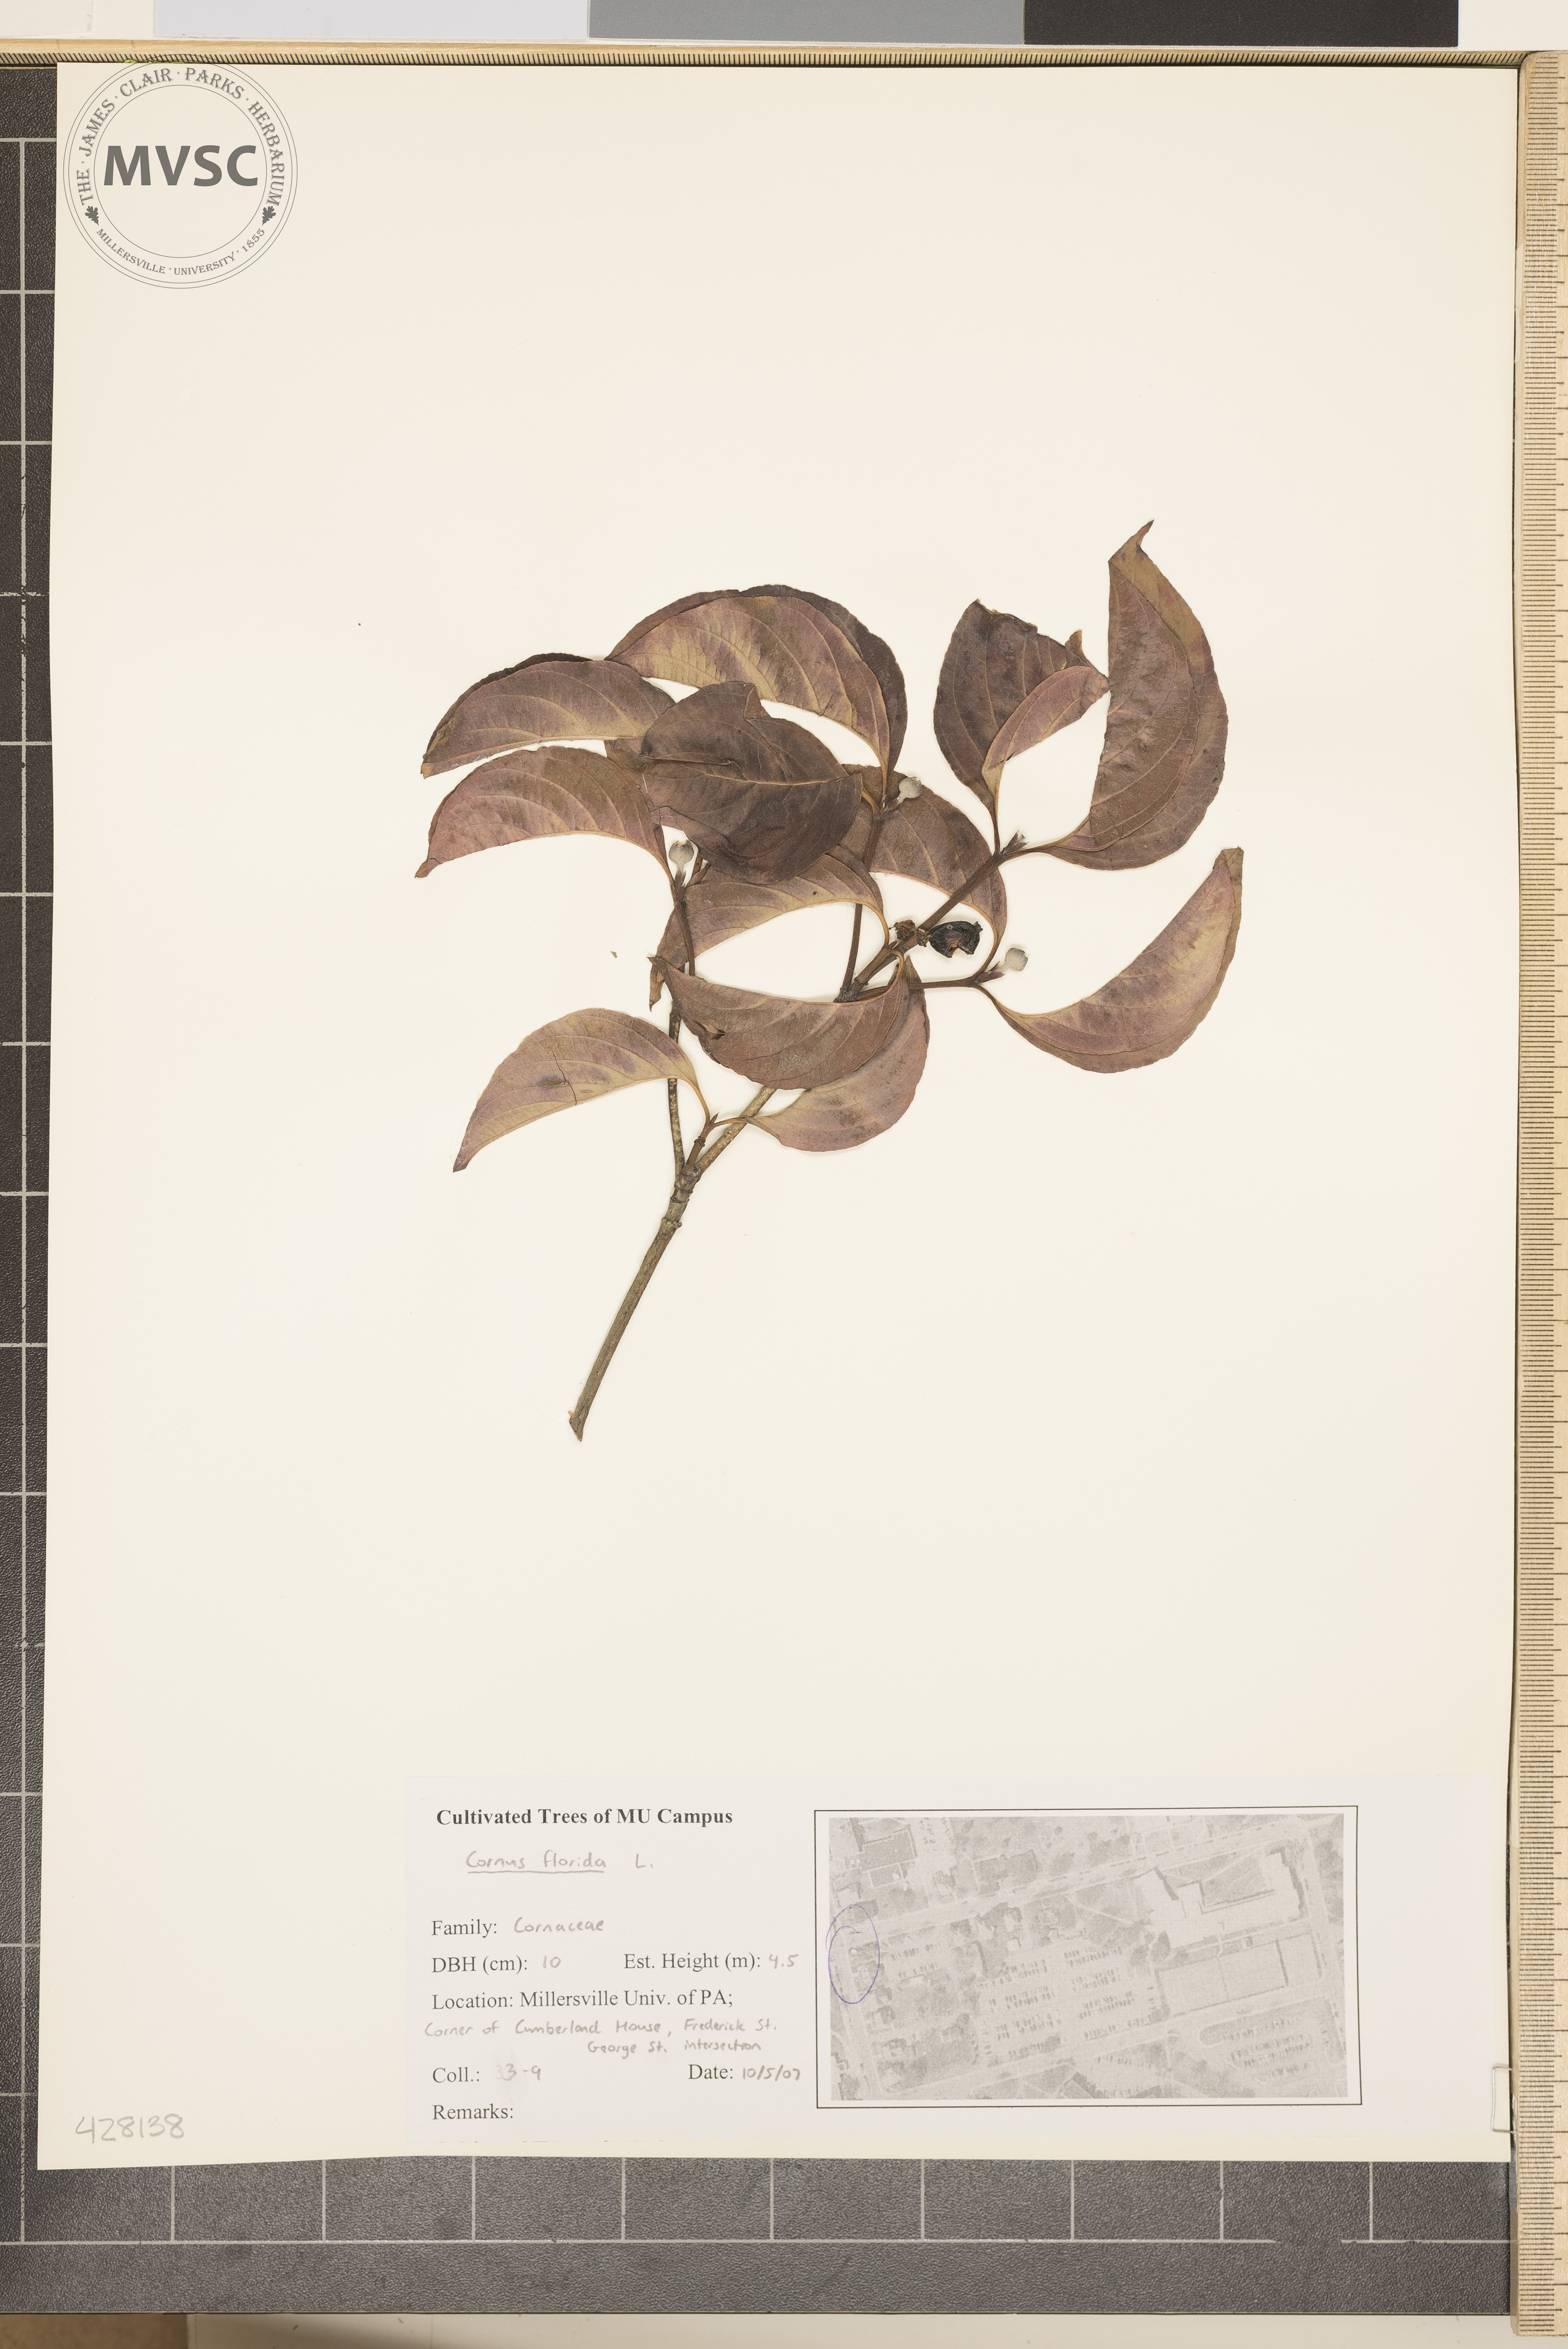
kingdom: Plantae
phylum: Tracheophyta
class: Magnoliopsida
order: Cornales
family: Cornaceae
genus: Cornus
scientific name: Cornus florida
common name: Flowering Dogwood
